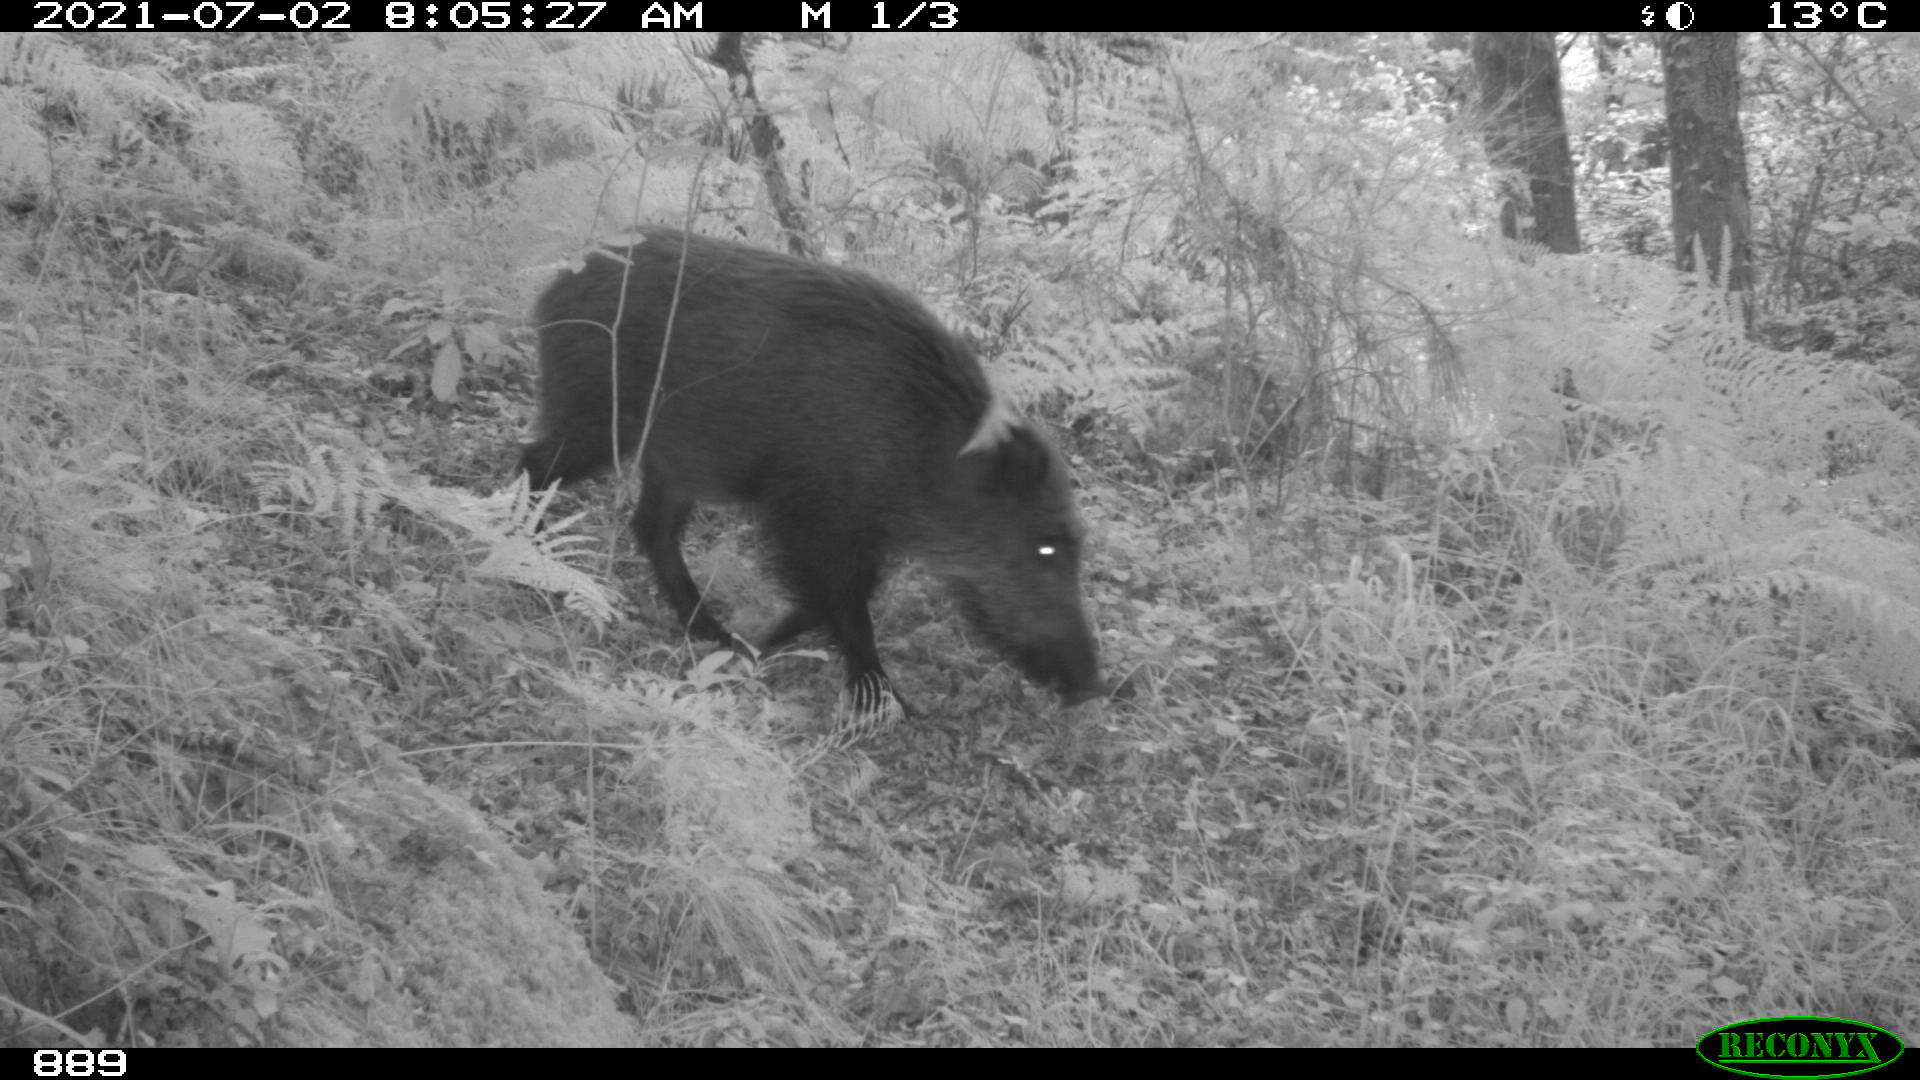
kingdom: Animalia
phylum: Chordata
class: Mammalia
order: Artiodactyla
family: Suidae
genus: Sus
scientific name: Sus scrofa
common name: Wild boar
